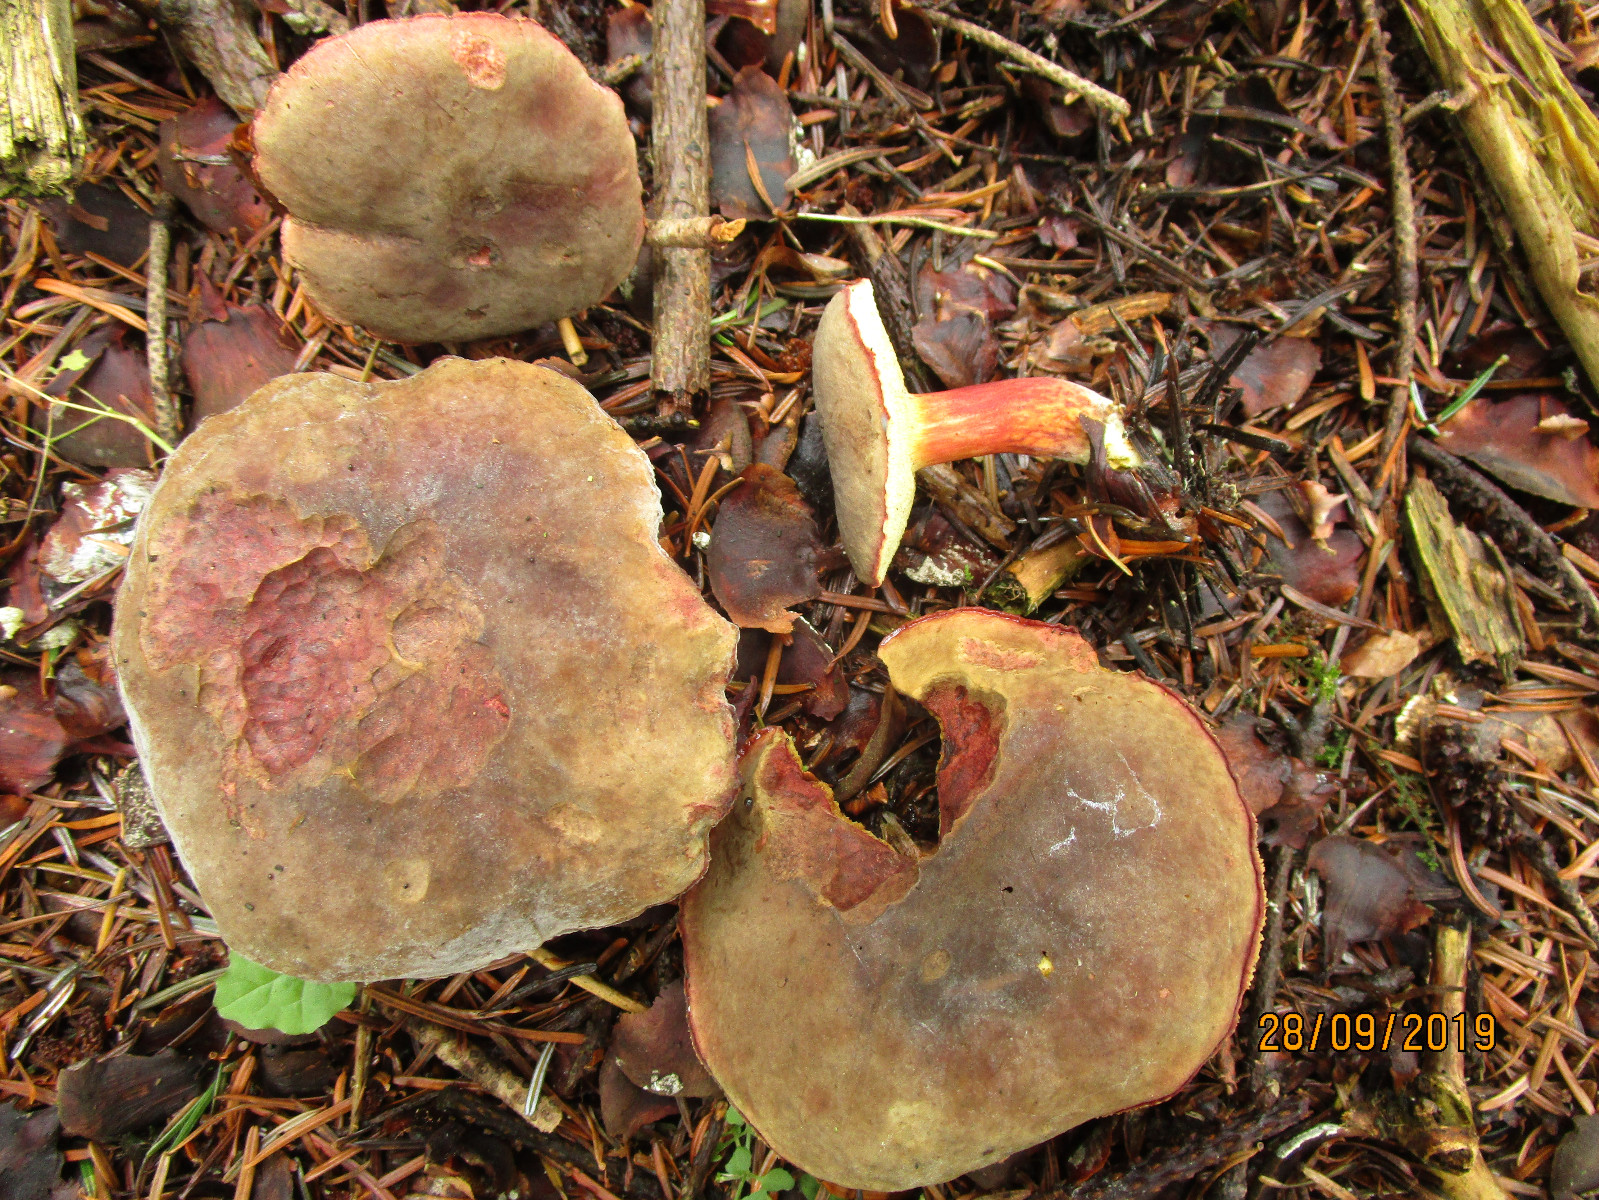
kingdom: Fungi
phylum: Basidiomycota
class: Agaricomycetes
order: Boletales
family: Boletaceae
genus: Xerocomellus
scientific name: Xerocomellus pruinatus
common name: dugget rørhat
